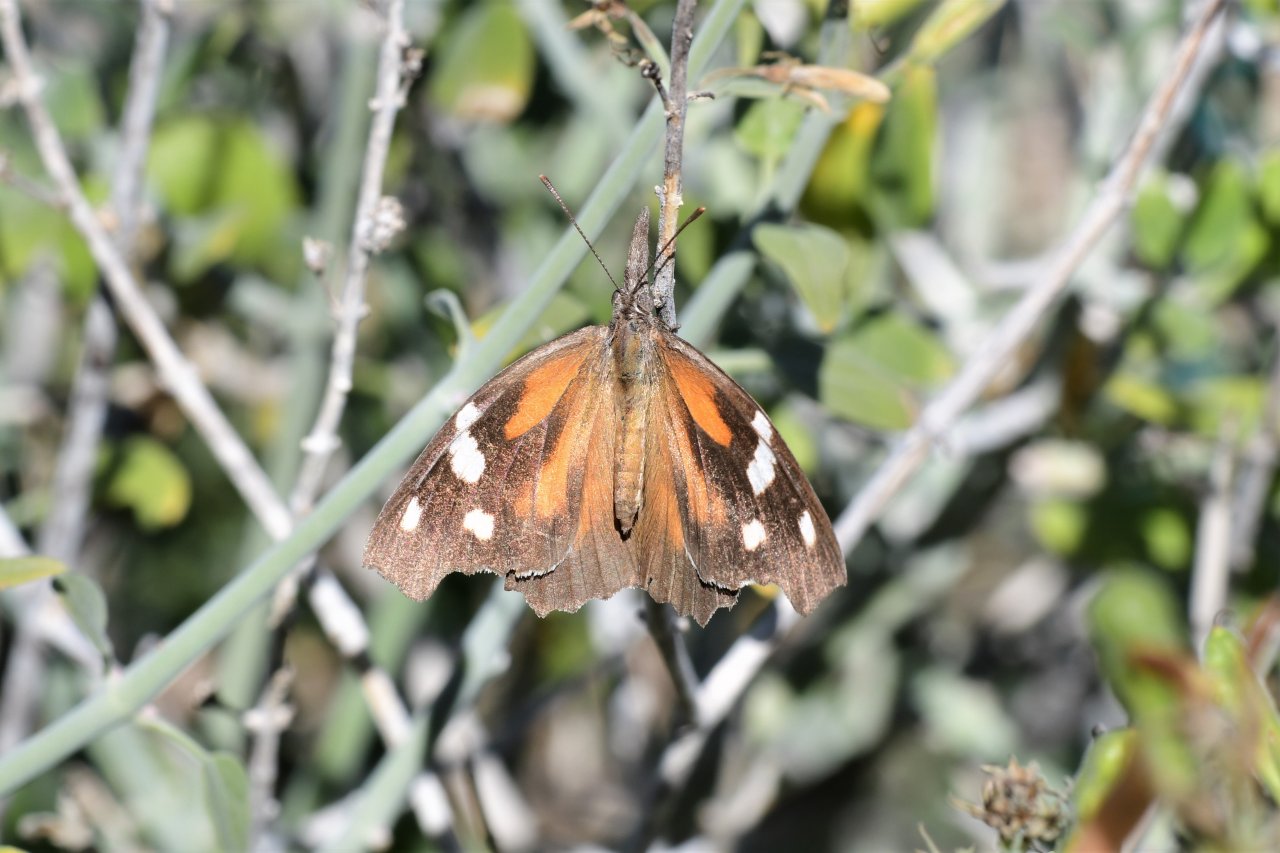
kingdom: Animalia
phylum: Arthropoda
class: Insecta
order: Lepidoptera
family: Nymphalidae
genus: Libytheana
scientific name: Libytheana carinenta
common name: American Snout
